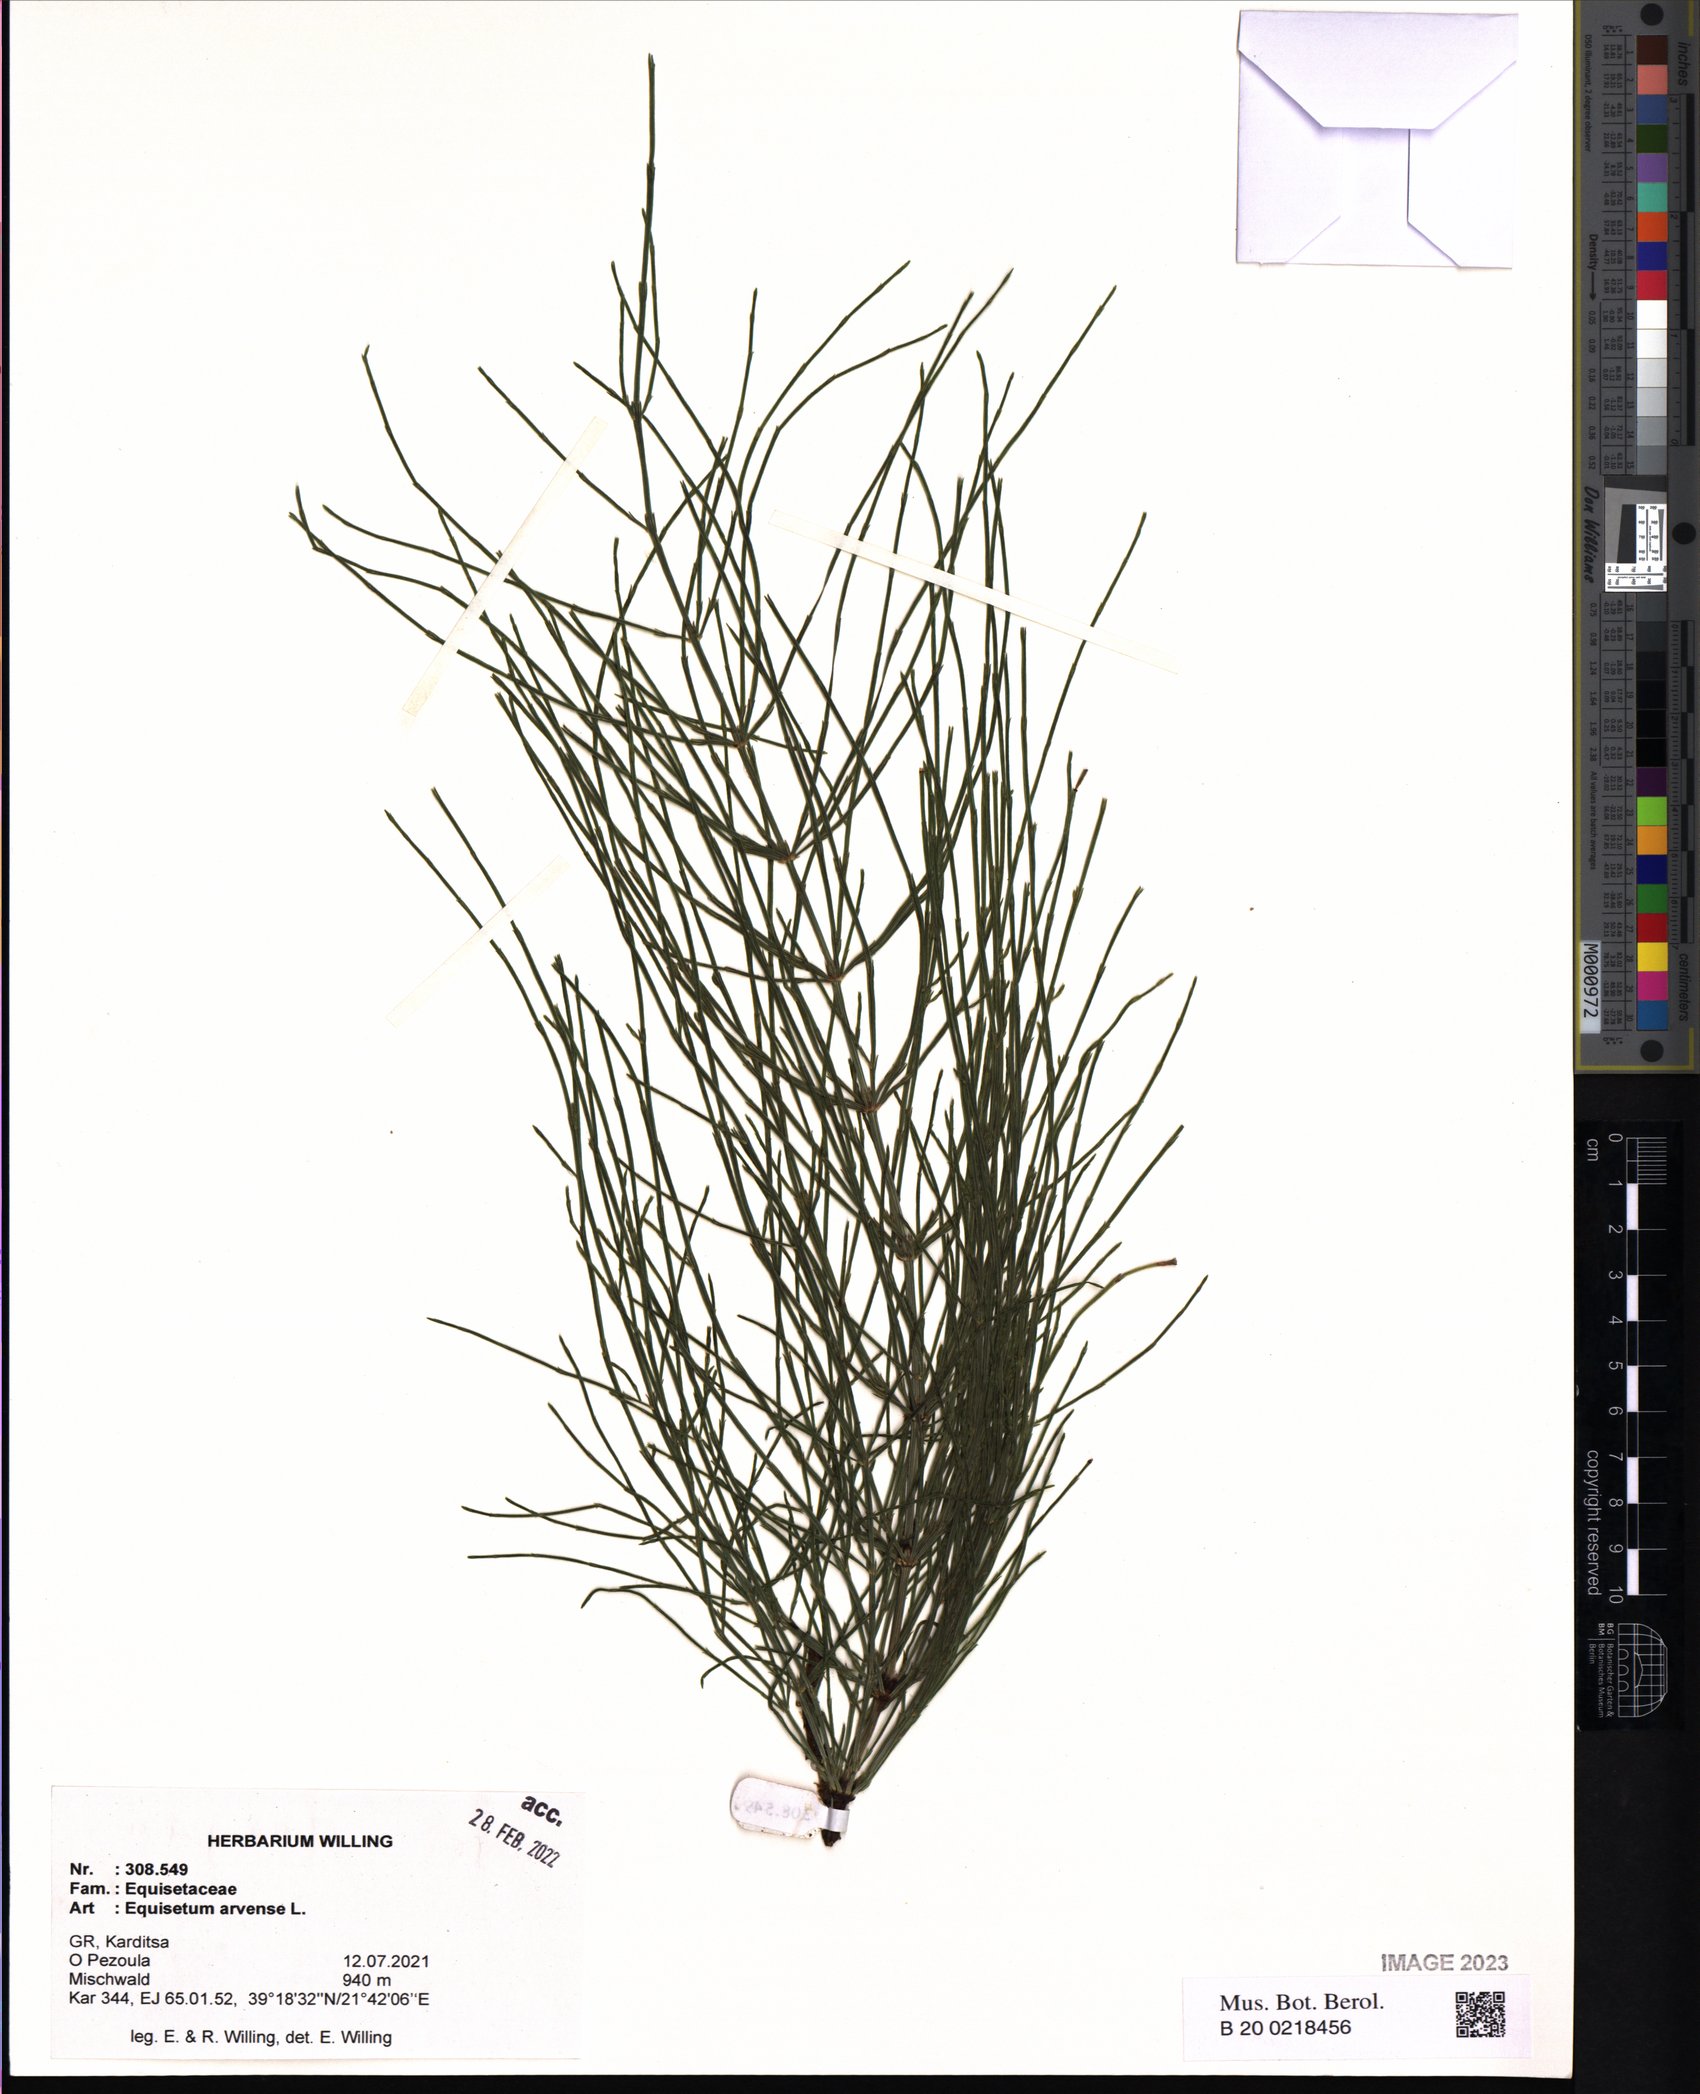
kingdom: Plantae
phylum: Tracheophyta
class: Polypodiopsida
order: Equisetales
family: Equisetaceae
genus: Equisetum
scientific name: Equisetum arvense
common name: Field horsetail
